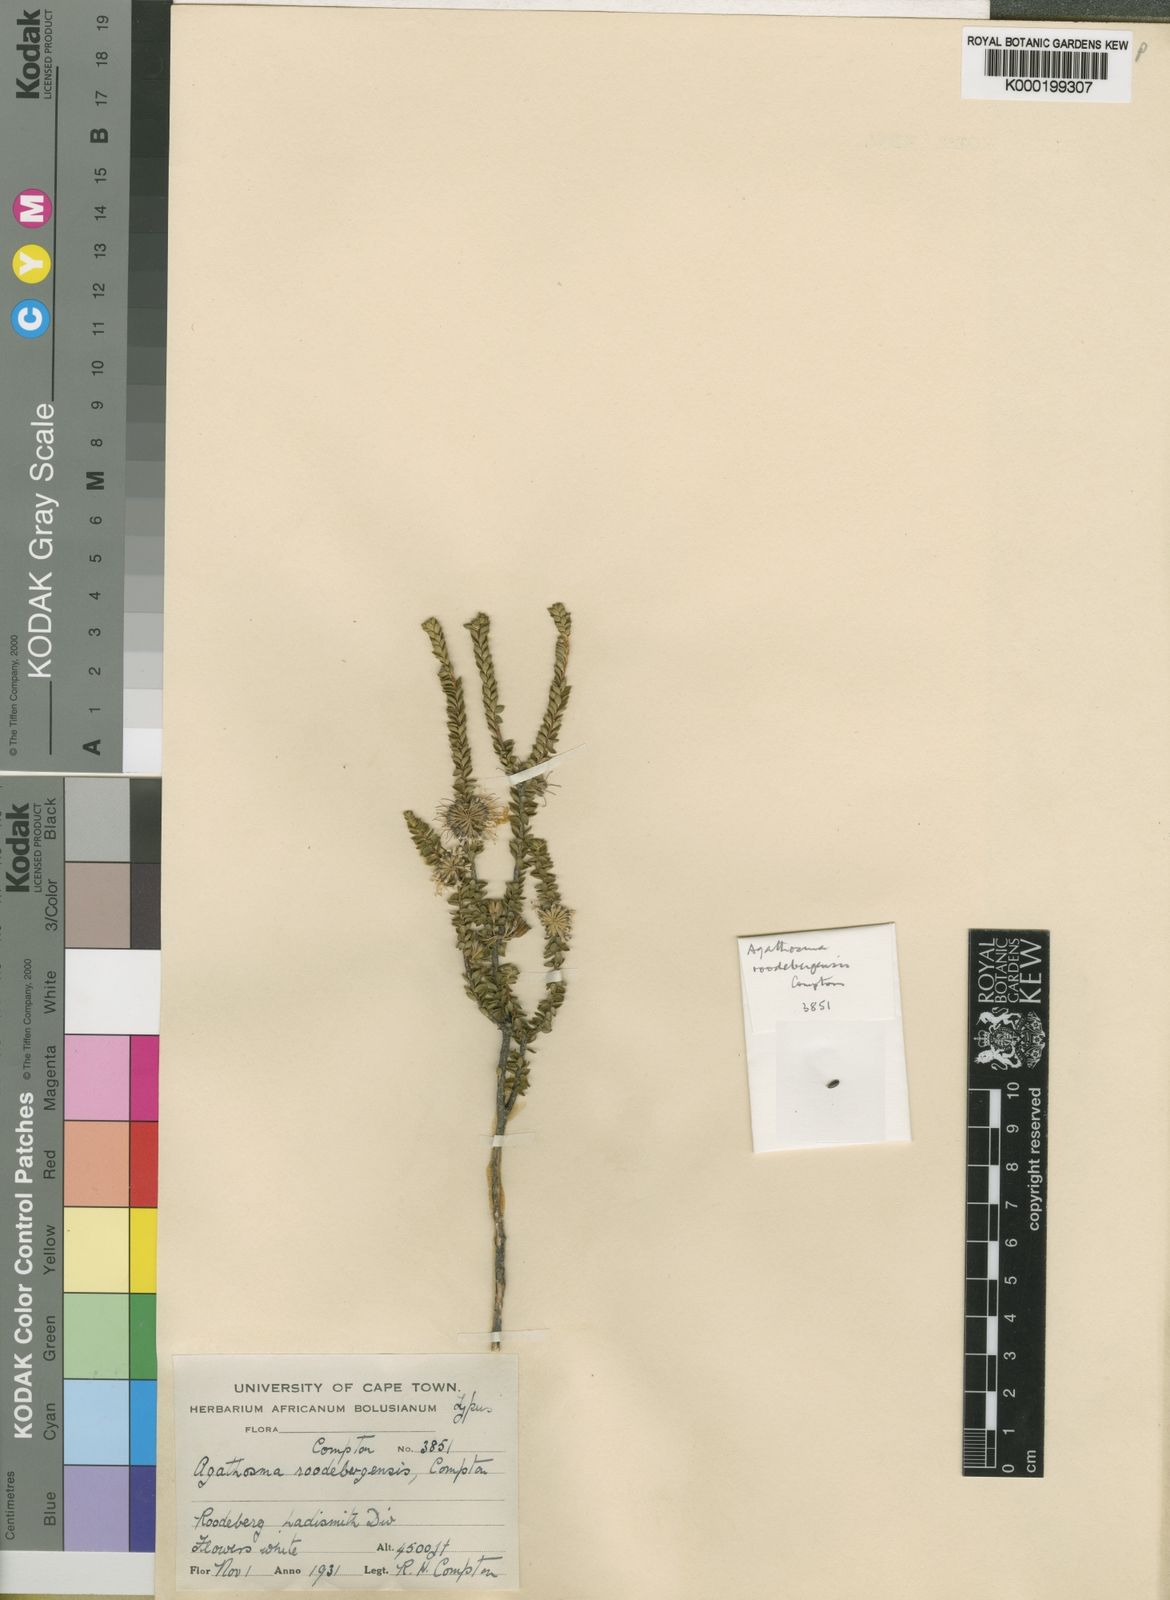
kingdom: Plantae
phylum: Tracheophyta
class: Magnoliopsida
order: Sapindales
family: Rutaceae
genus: Agathosma
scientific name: Agathosma roodebergensis
